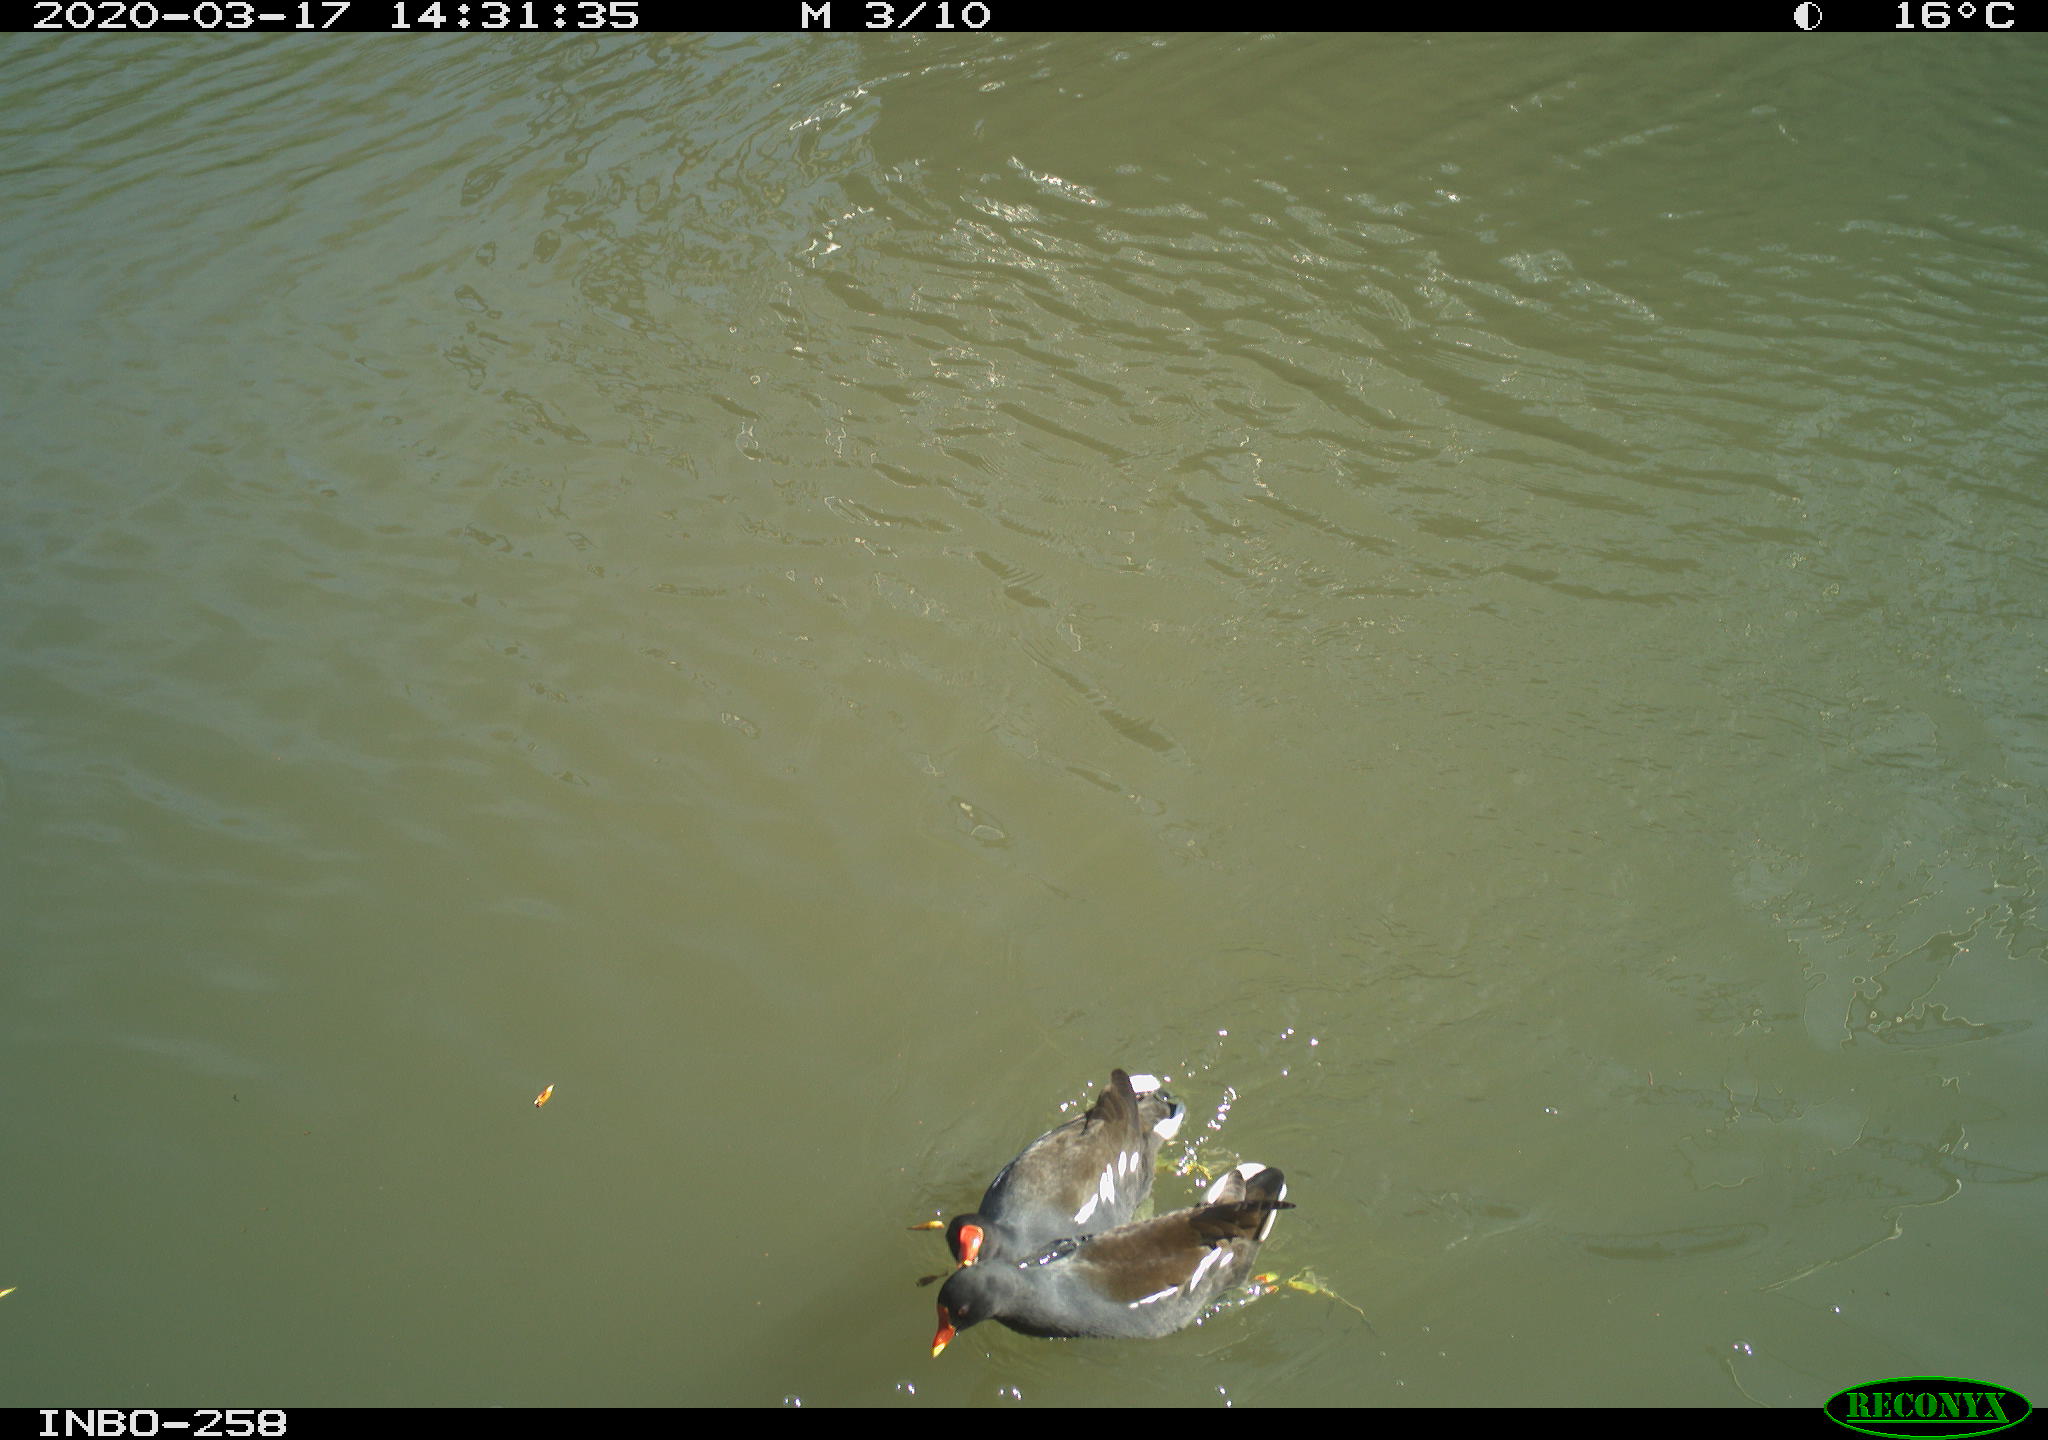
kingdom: Animalia
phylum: Chordata
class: Aves
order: Gruiformes
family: Rallidae
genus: Gallinula
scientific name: Gallinula chloropus
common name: Common moorhen
